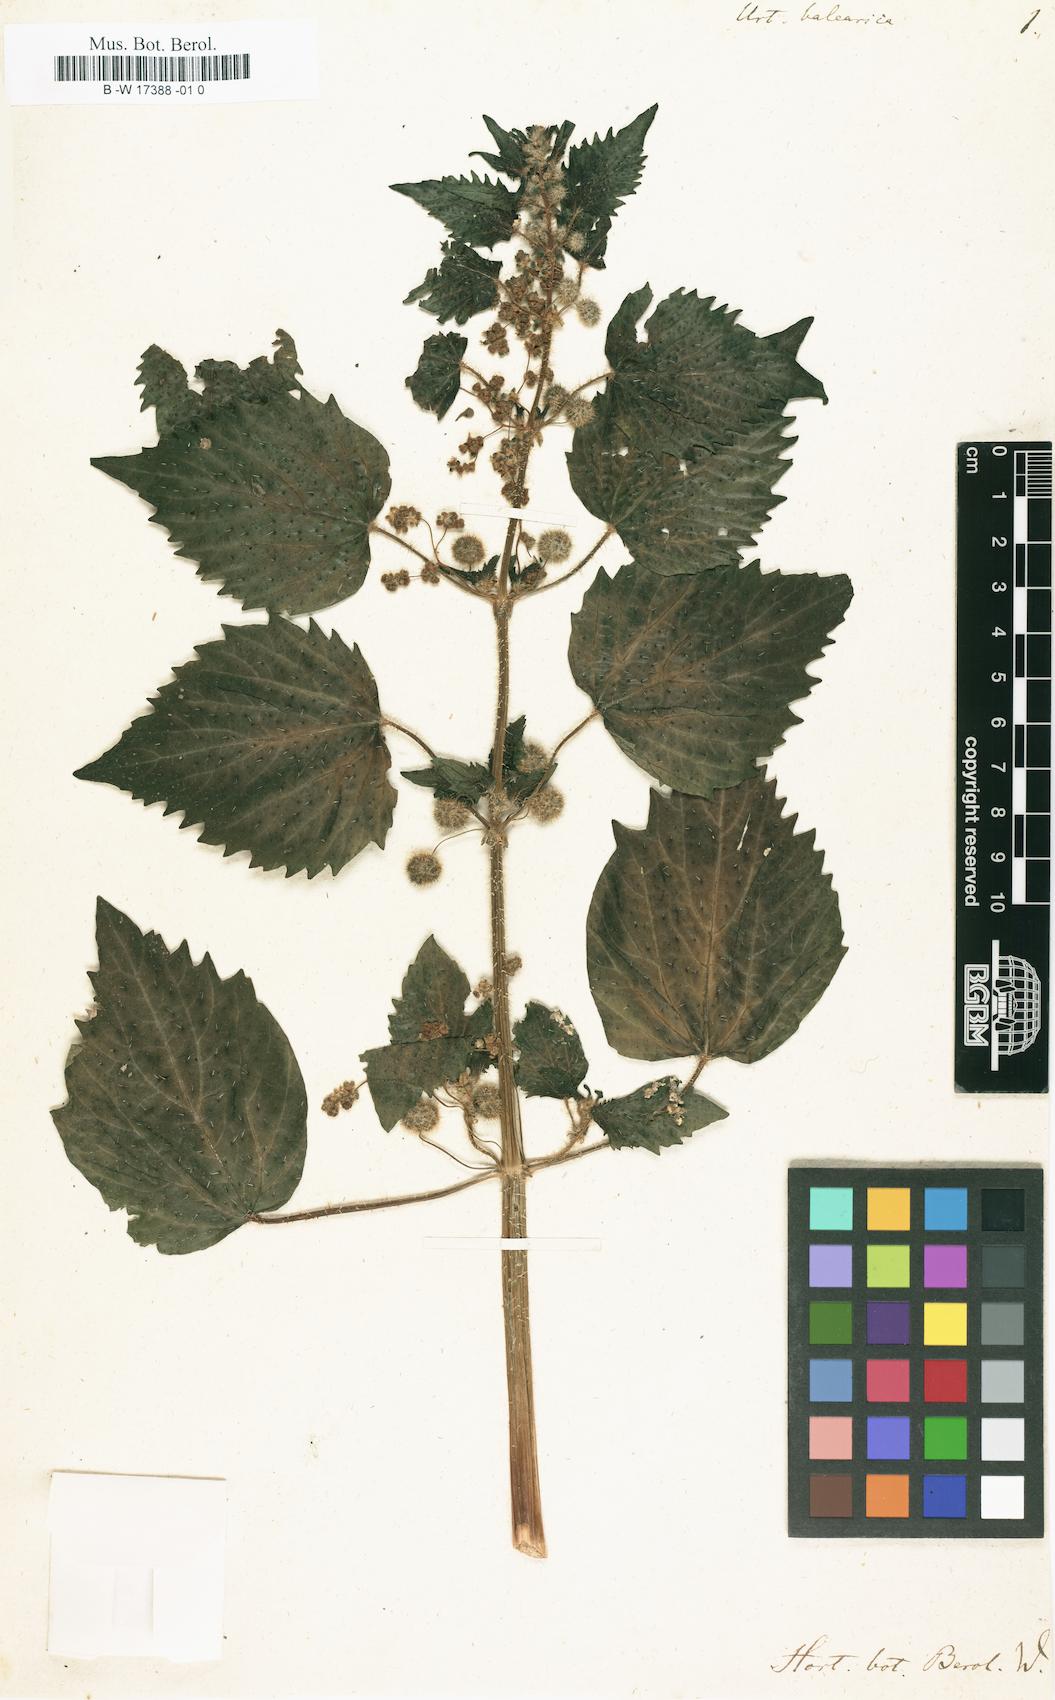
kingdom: Plantae
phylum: Tracheophyta
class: Magnoliopsida
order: Rosales
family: Urticaceae
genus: Urtica
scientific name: Urtica pilulifera
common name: Roman nettle
